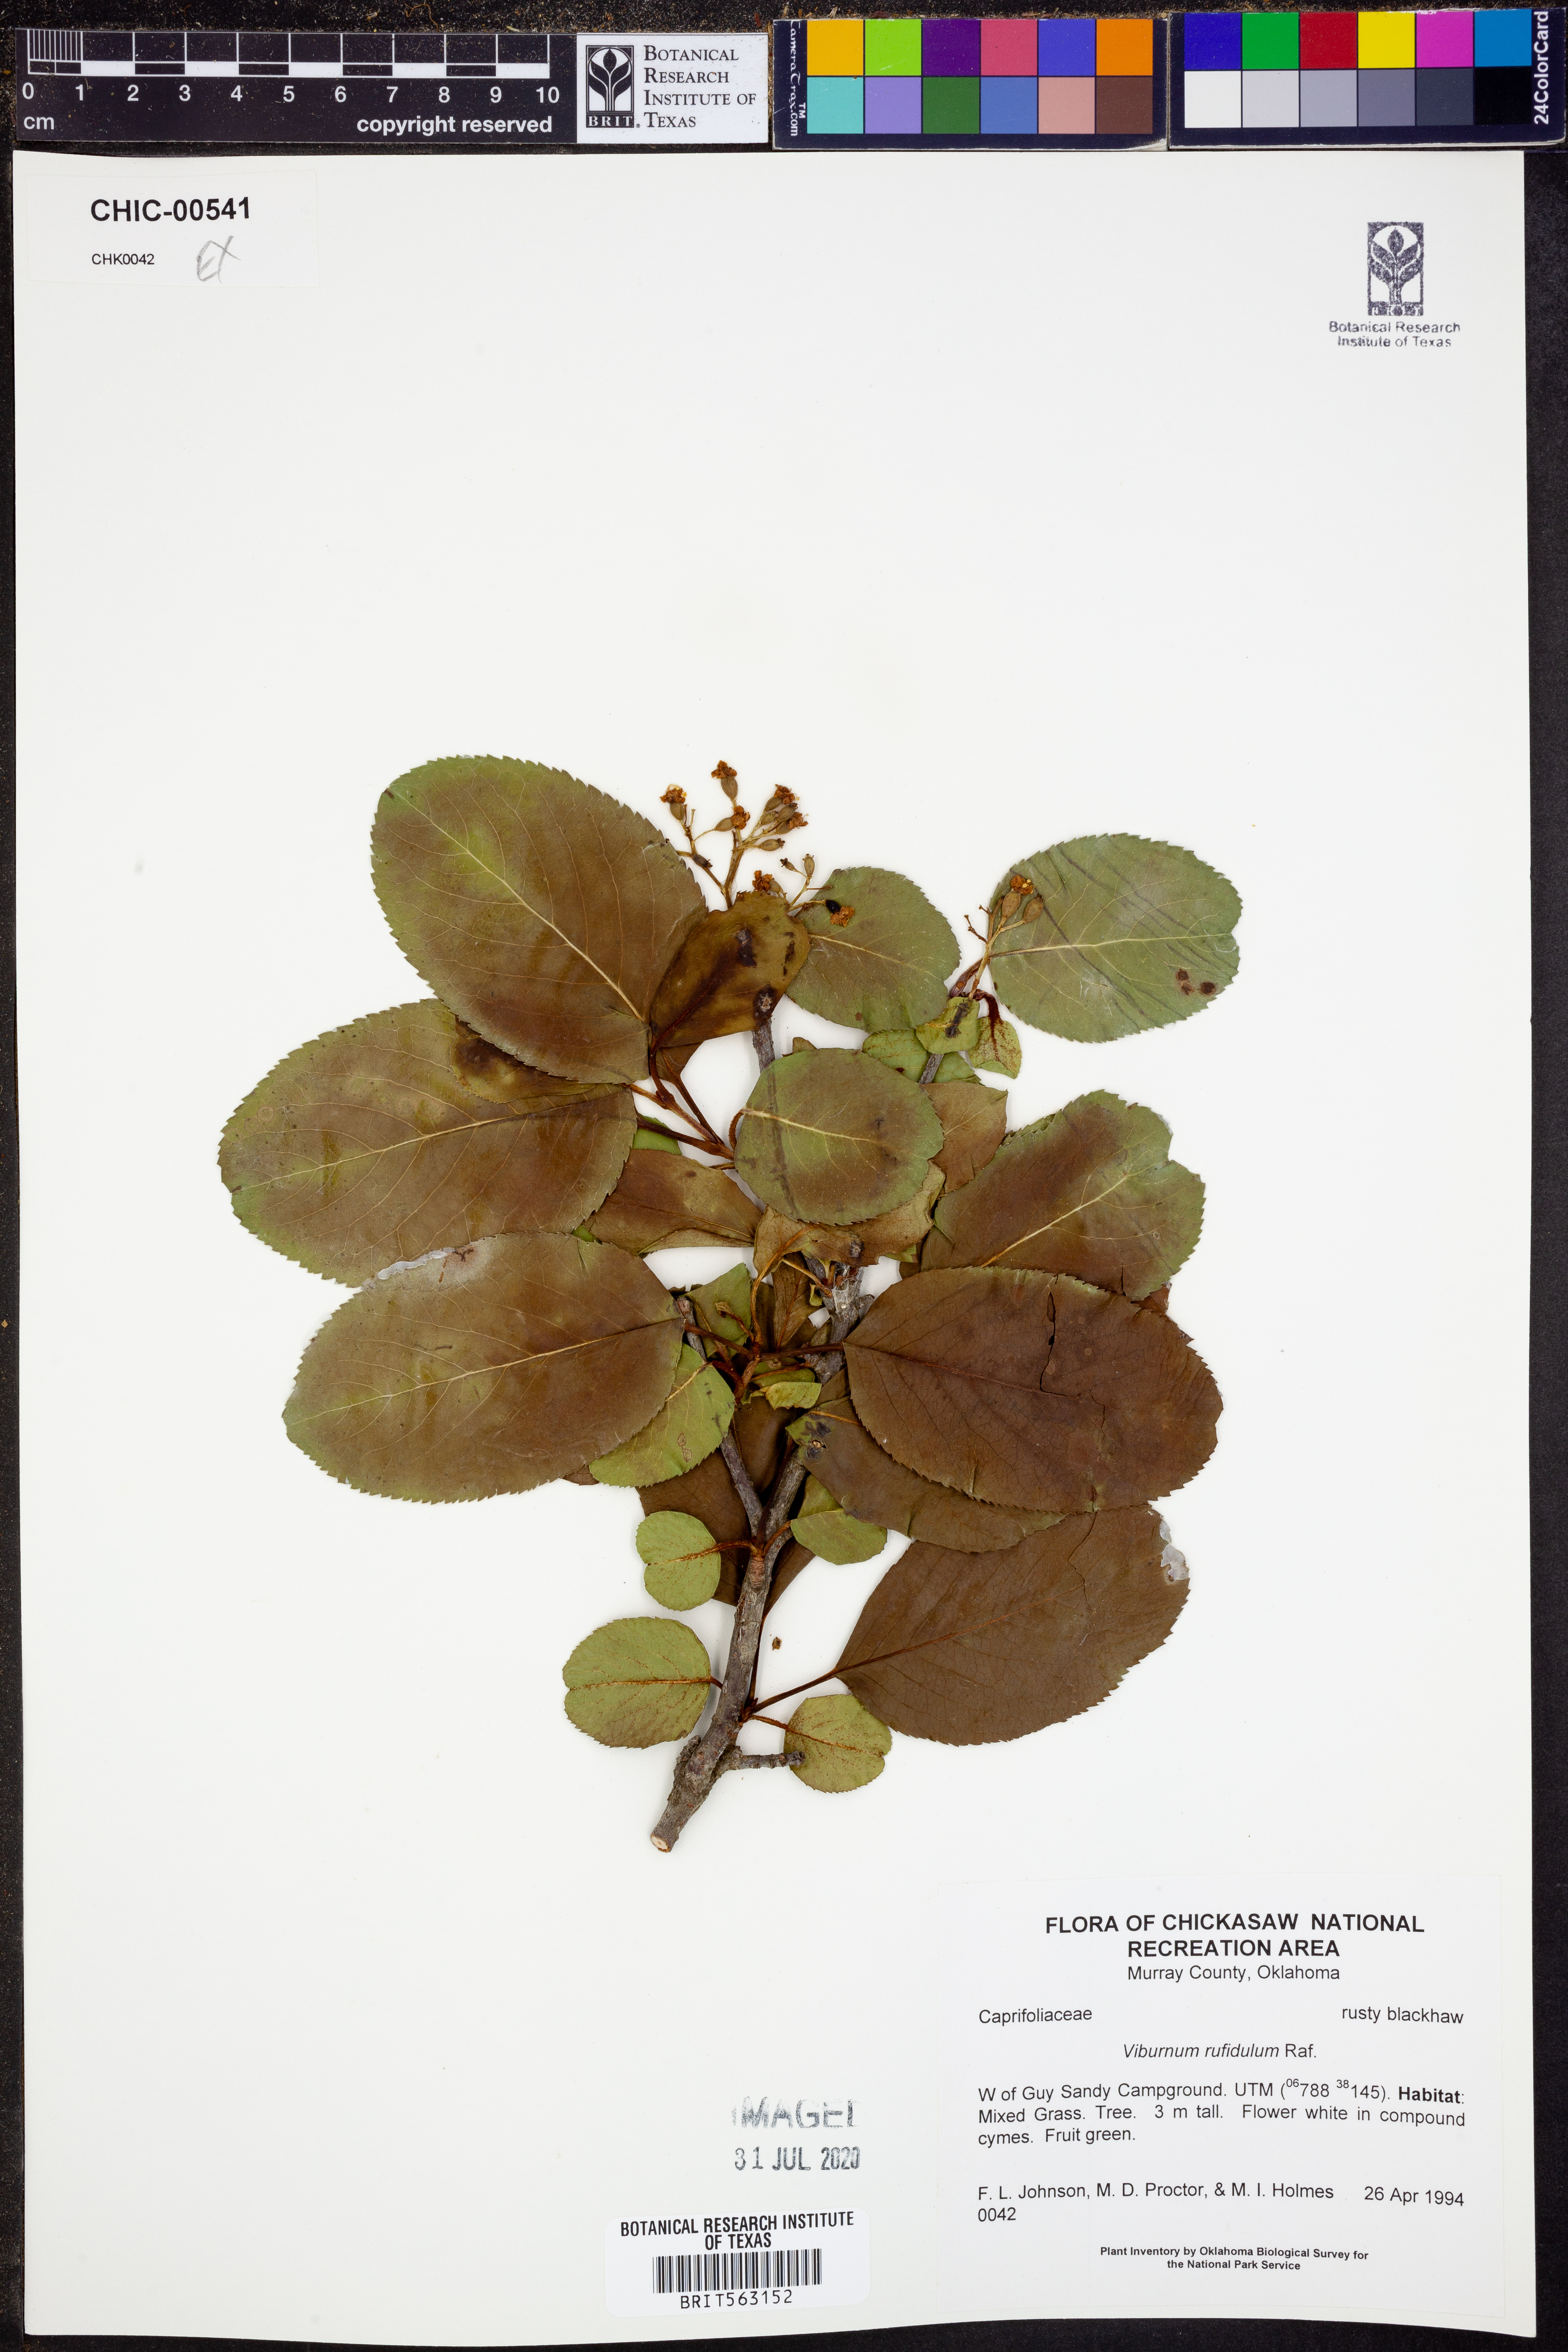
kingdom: Plantae
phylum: Tracheophyta
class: Magnoliopsida
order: Dipsacales
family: Viburnaceae
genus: Viburnum
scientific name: Viburnum rufidulum
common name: Blue haw
